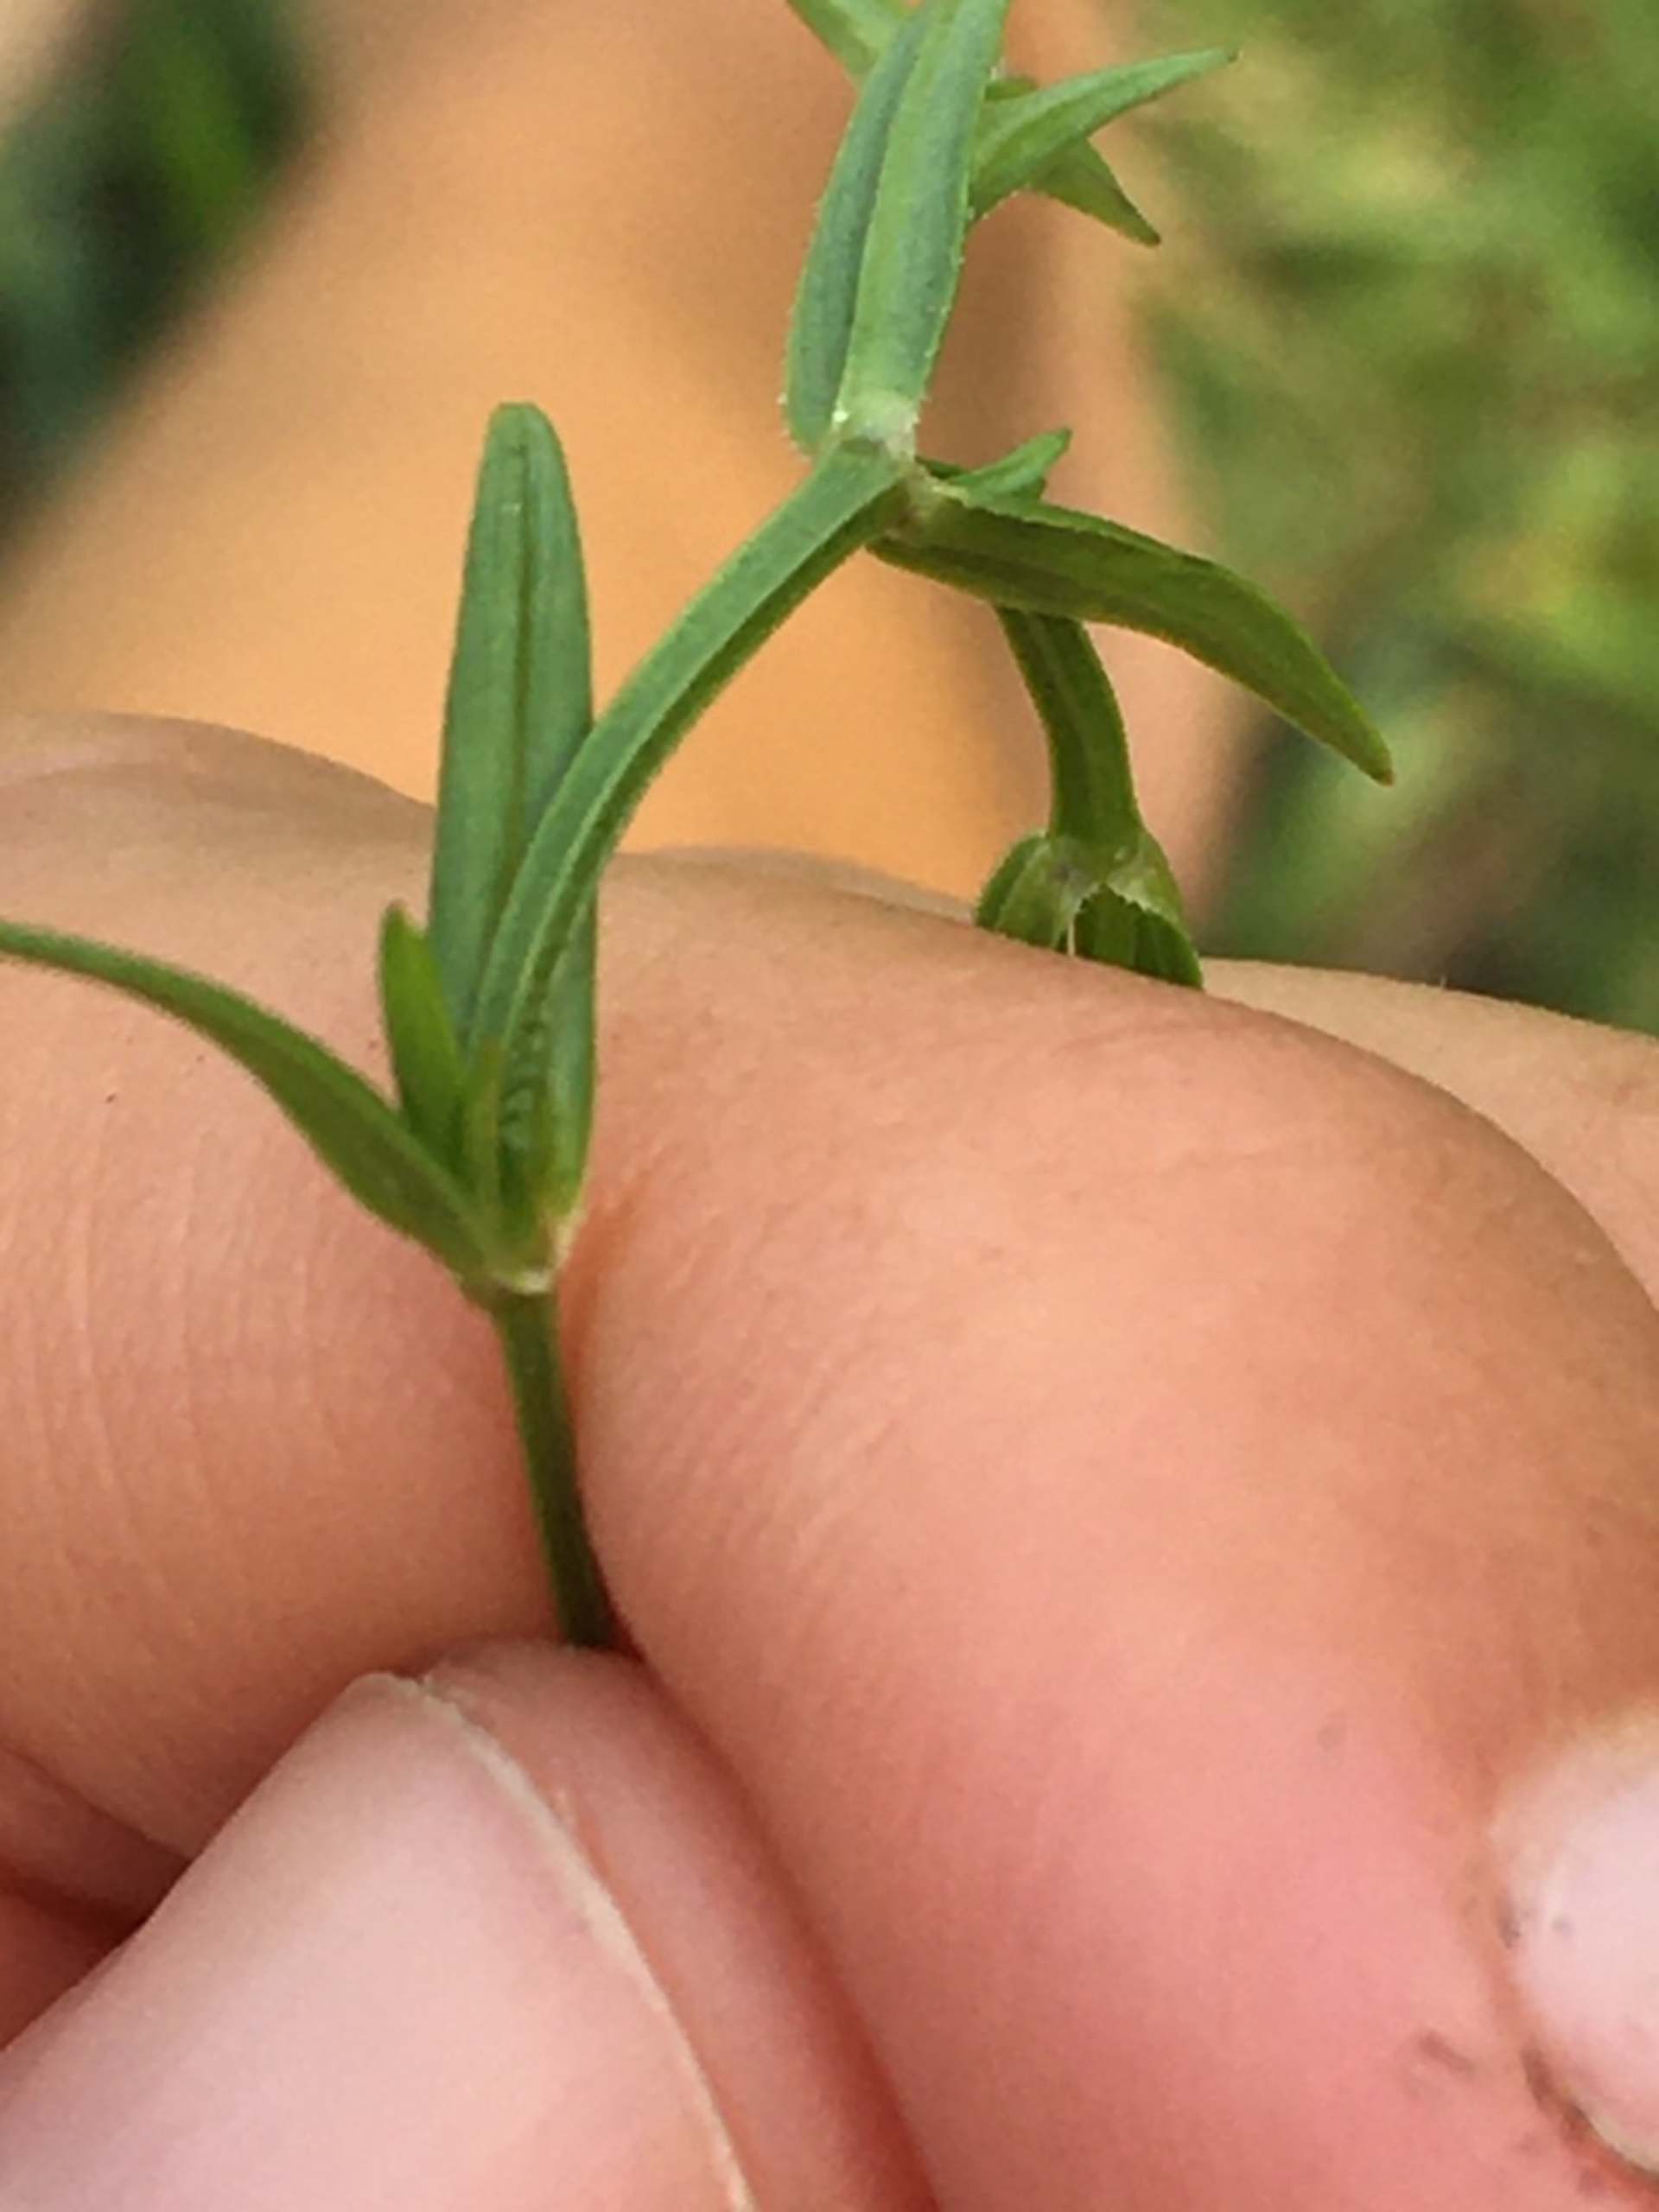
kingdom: Plantae
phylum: Tracheophyta
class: Magnoliopsida
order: Caryophyllales
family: Caryophyllaceae
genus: Stellaria
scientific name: Stellaria graminea
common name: Græsbladet fladstjerne
